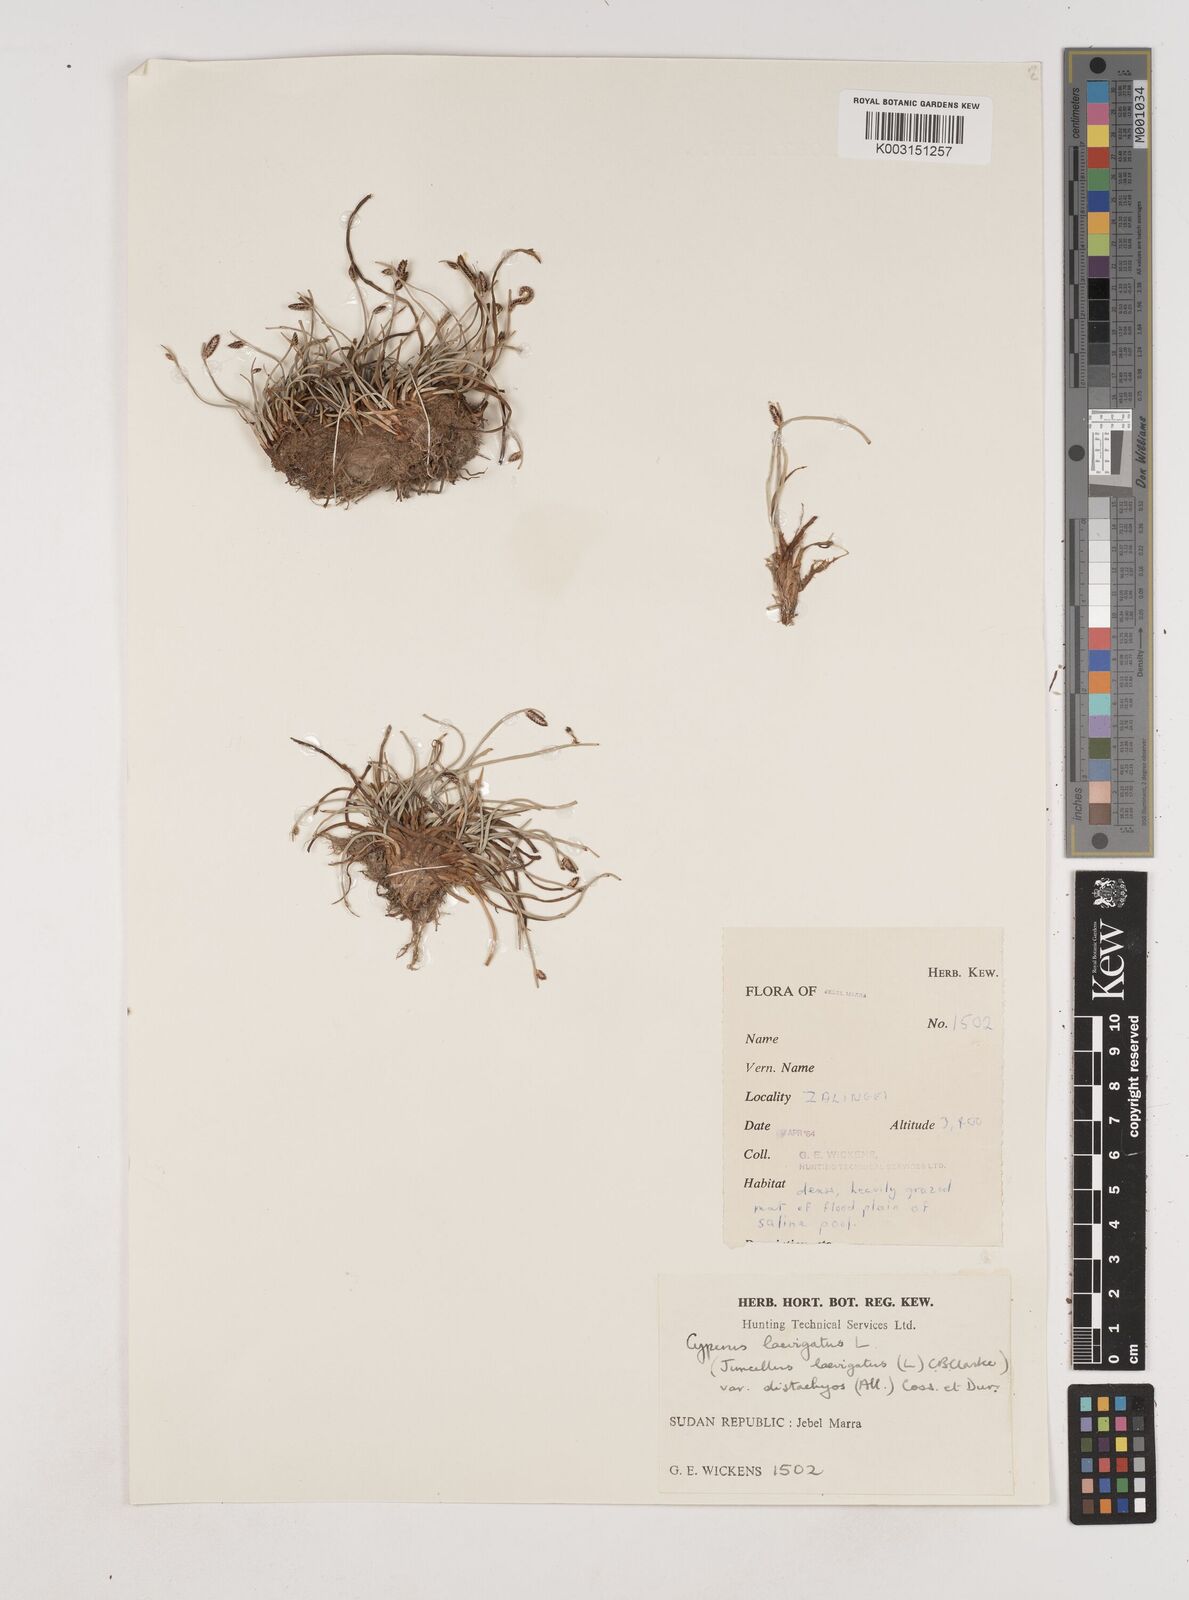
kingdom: Plantae
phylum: Tracheophyta
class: Liliopsida
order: Poales
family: Cyperaceae
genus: Cyperus
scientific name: Cyperus laevigatus
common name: Smooth flat sedge
